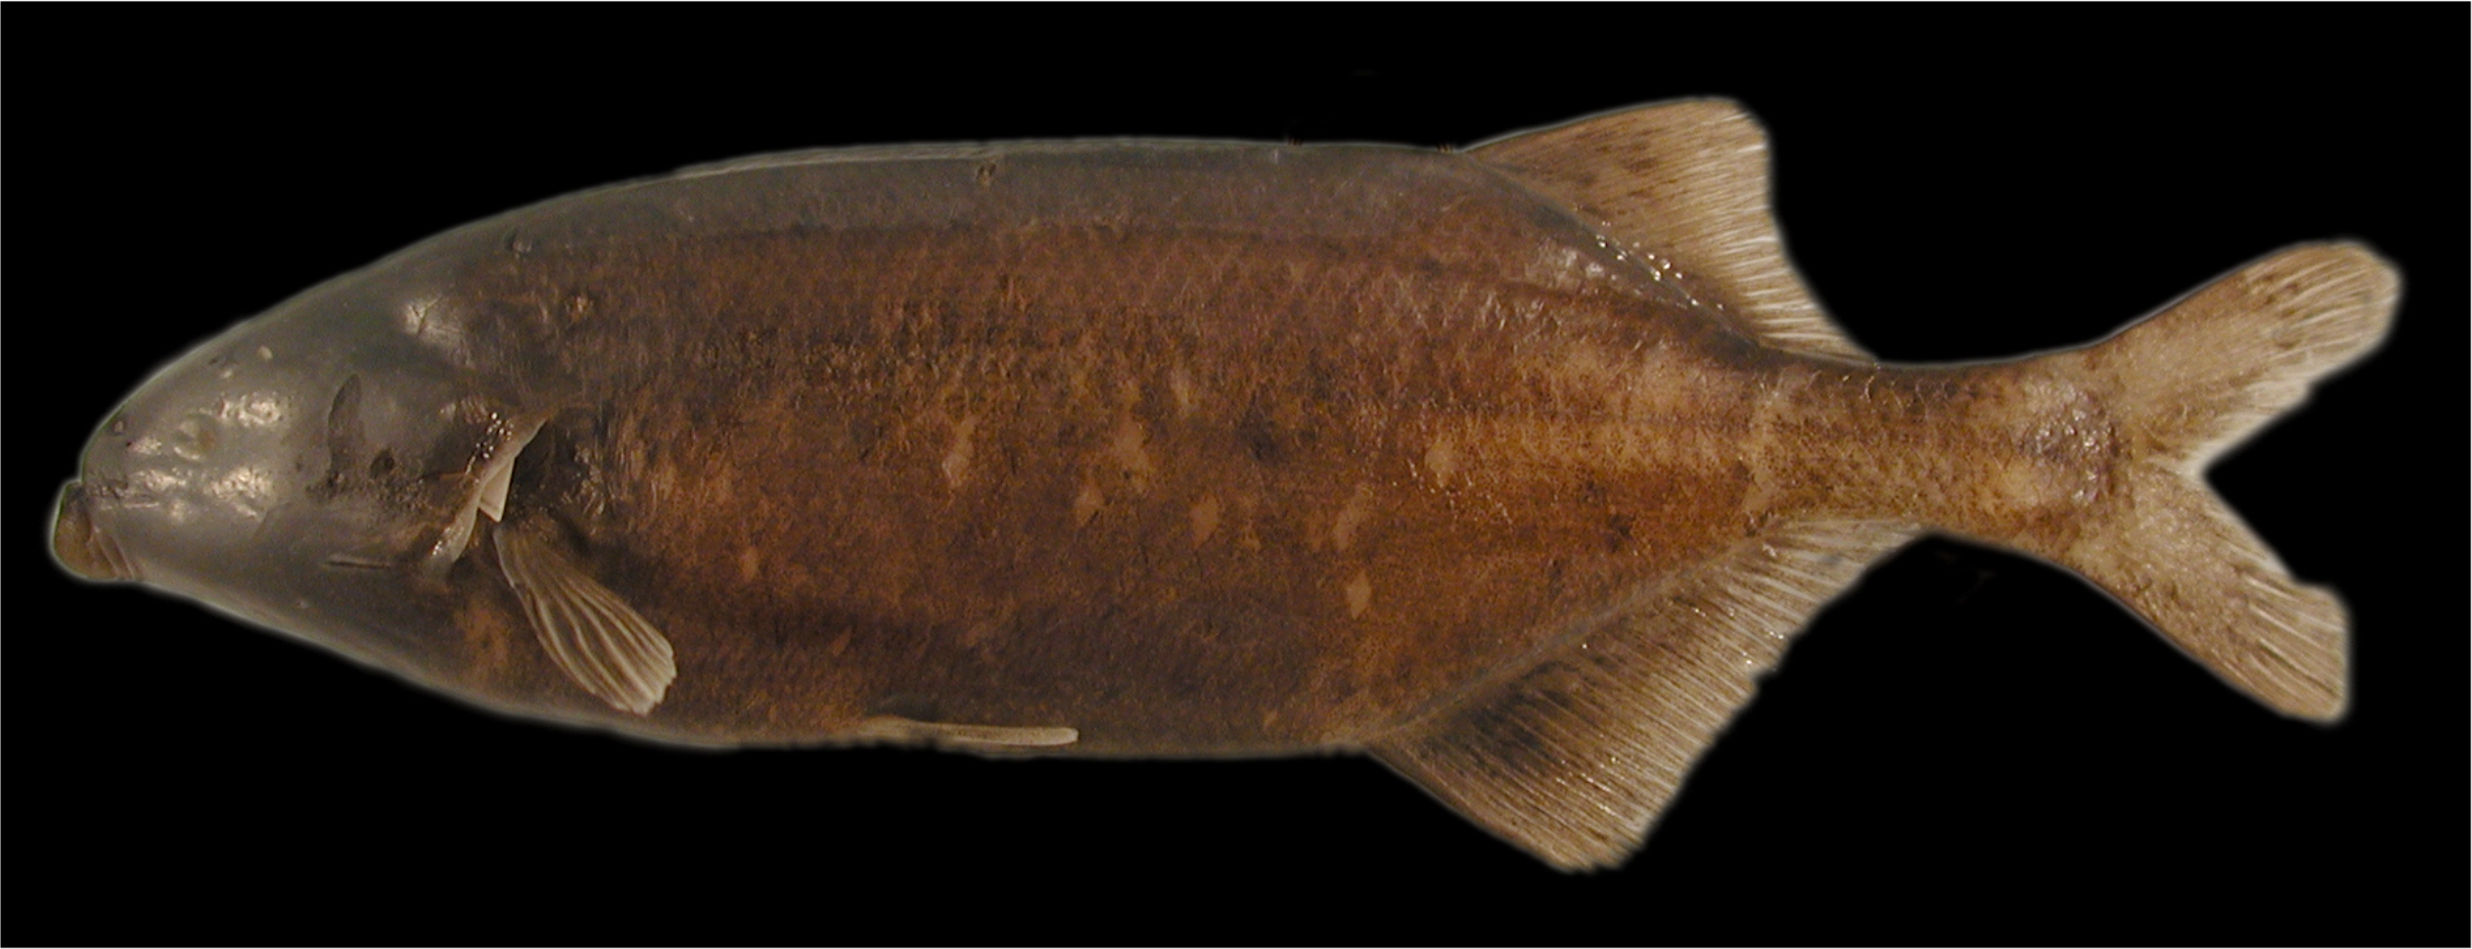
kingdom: Animalia
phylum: Chordata
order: Osteoglossiformes
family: Mormyridae
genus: Marcusenius
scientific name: Marcusenius macrolepidotus
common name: Bulldog
